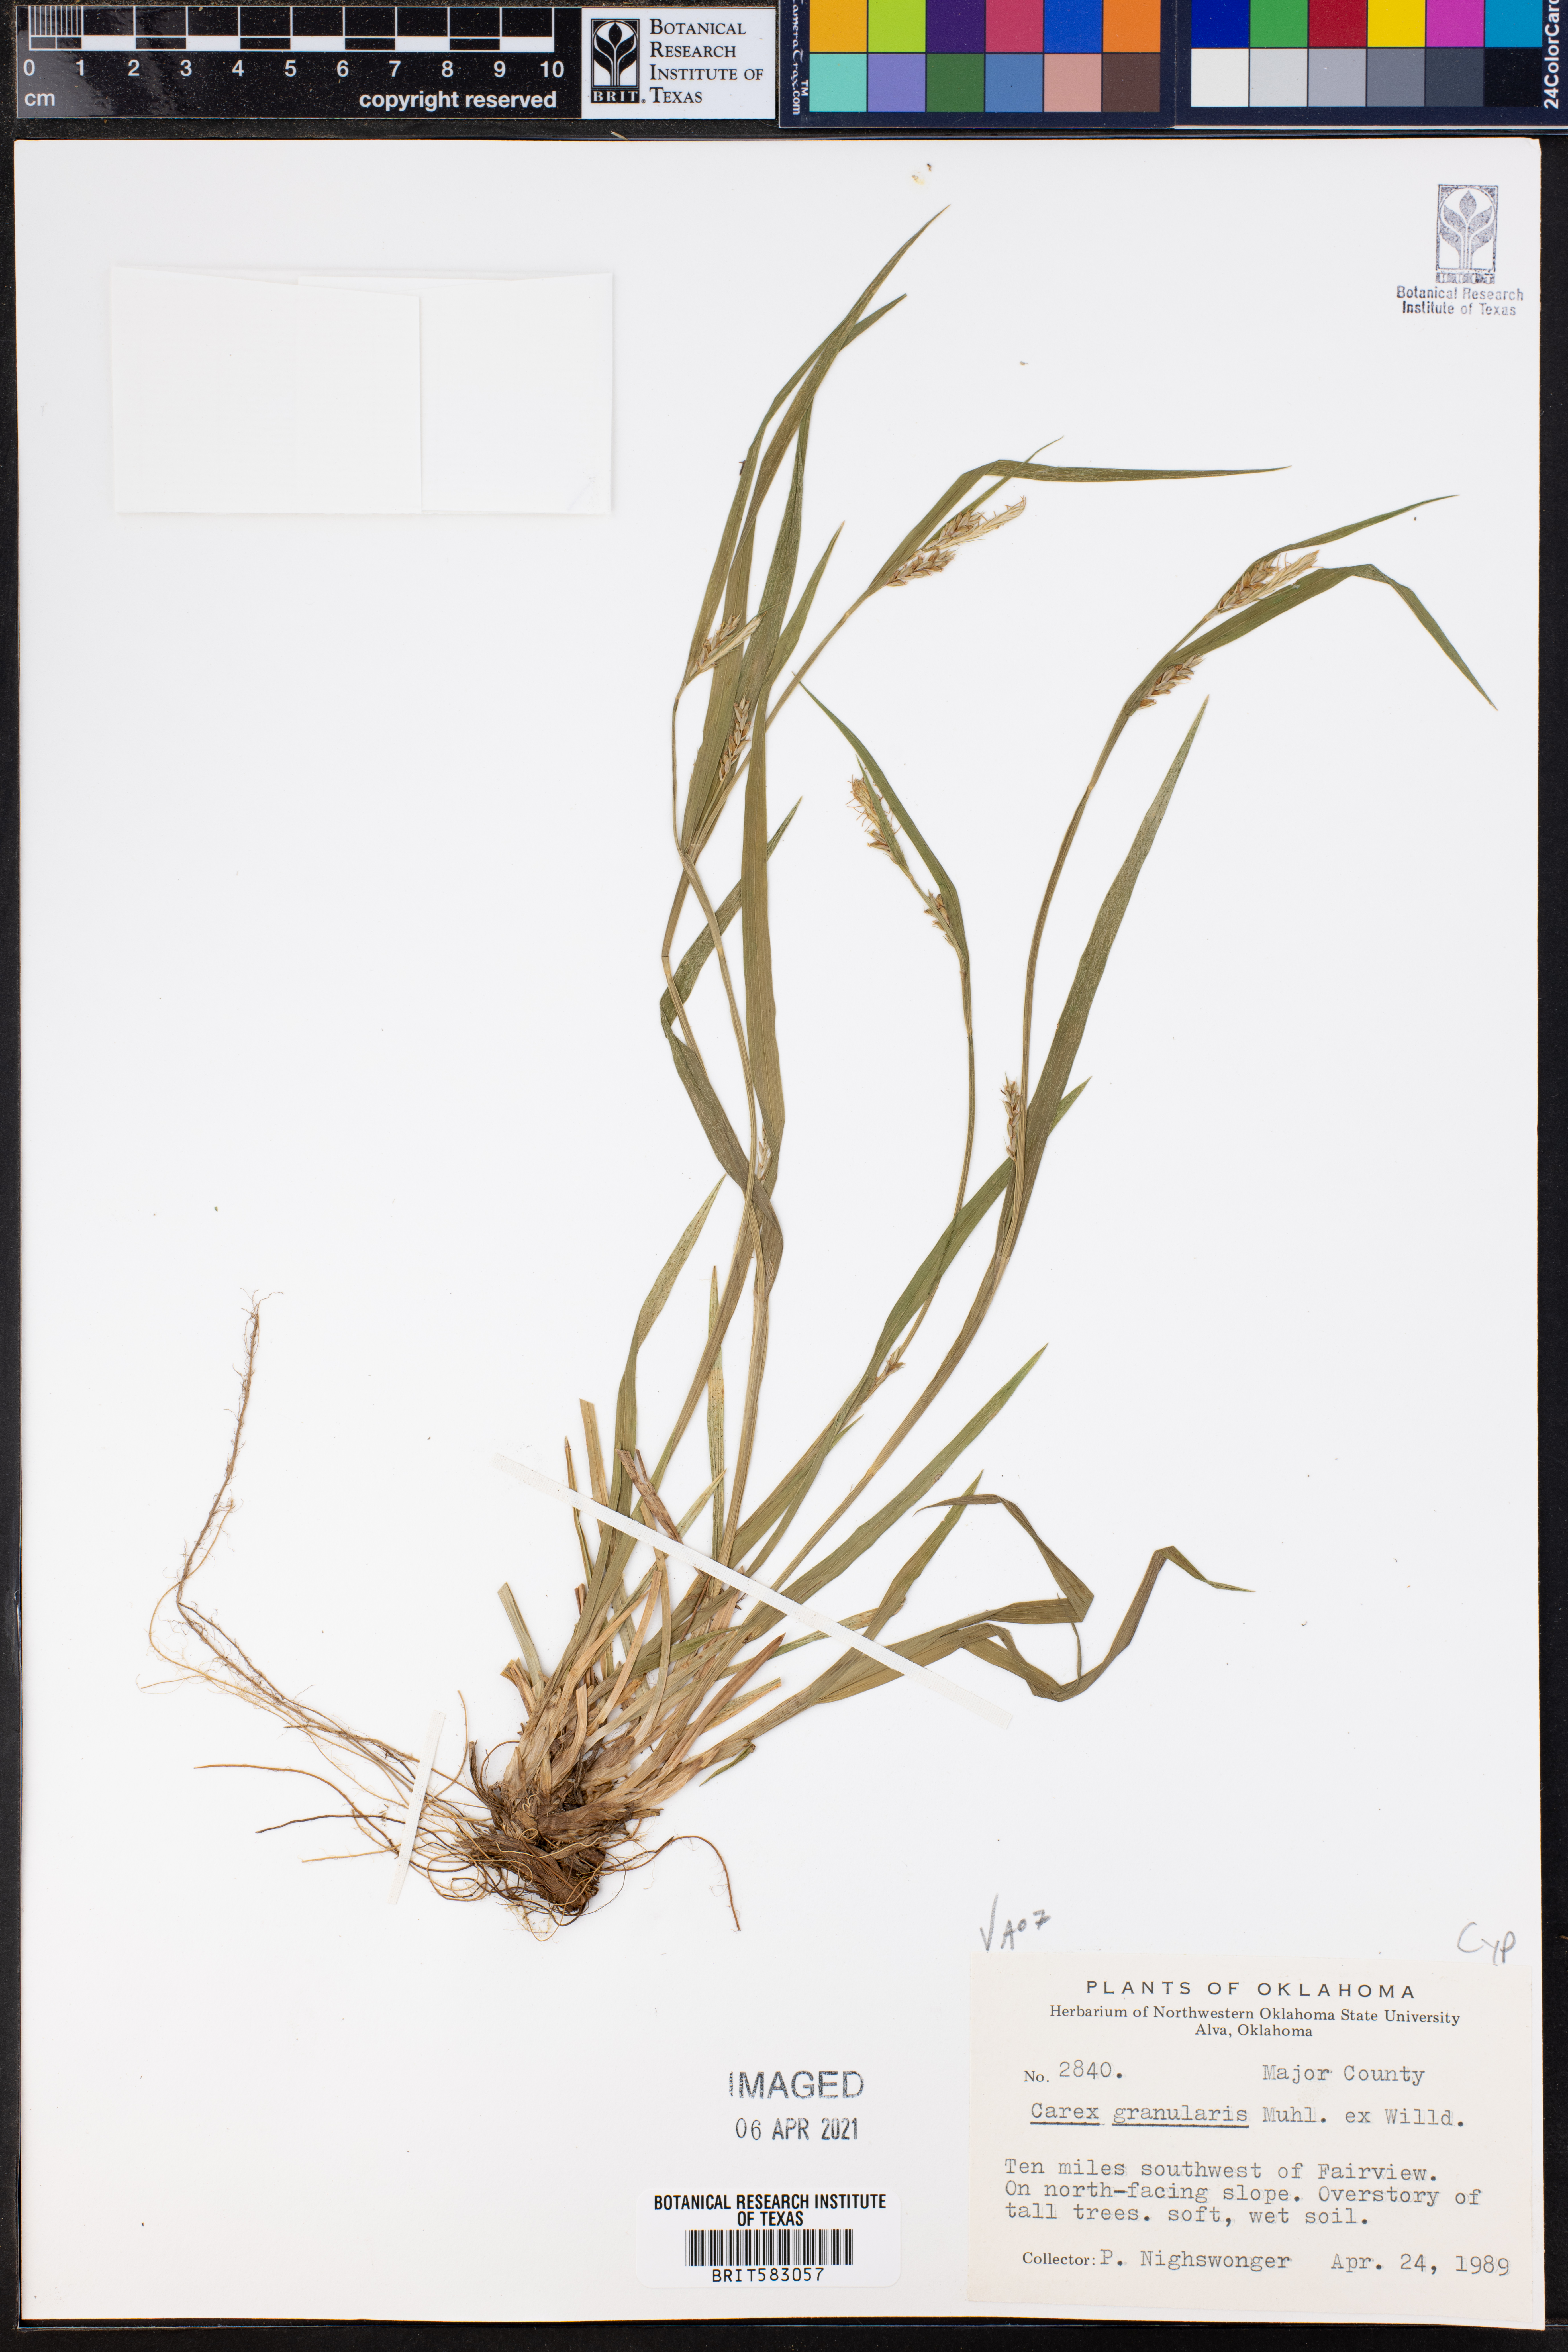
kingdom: Plantae
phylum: Tracheophyta
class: Liliopsida
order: Poales
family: Cyperaceae
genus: Carex
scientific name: Carex granularis
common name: Granular sedge
